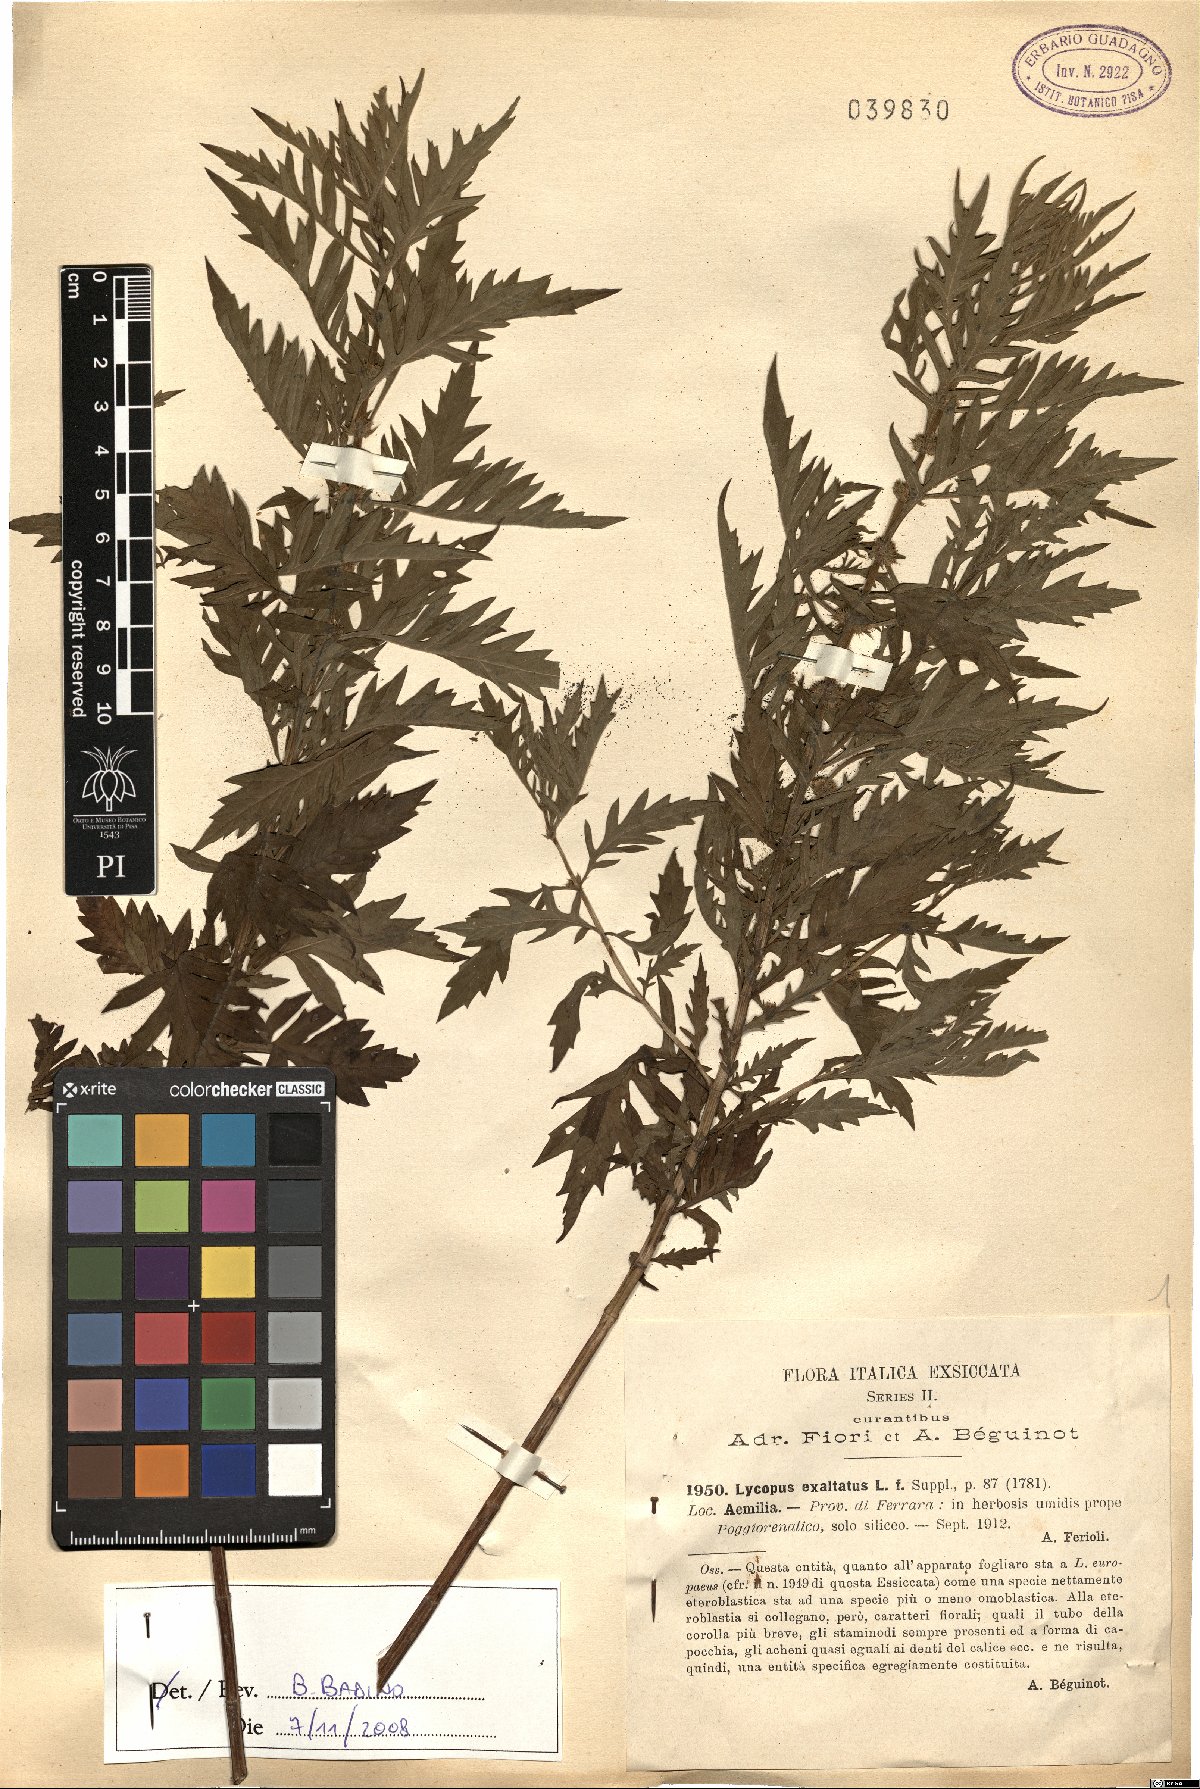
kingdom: Plantae
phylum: Tracheophyta
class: Magnoliopsida
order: Lamiales
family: Lamiaceae
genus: Lycopus
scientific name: Lycopus exaltatus
